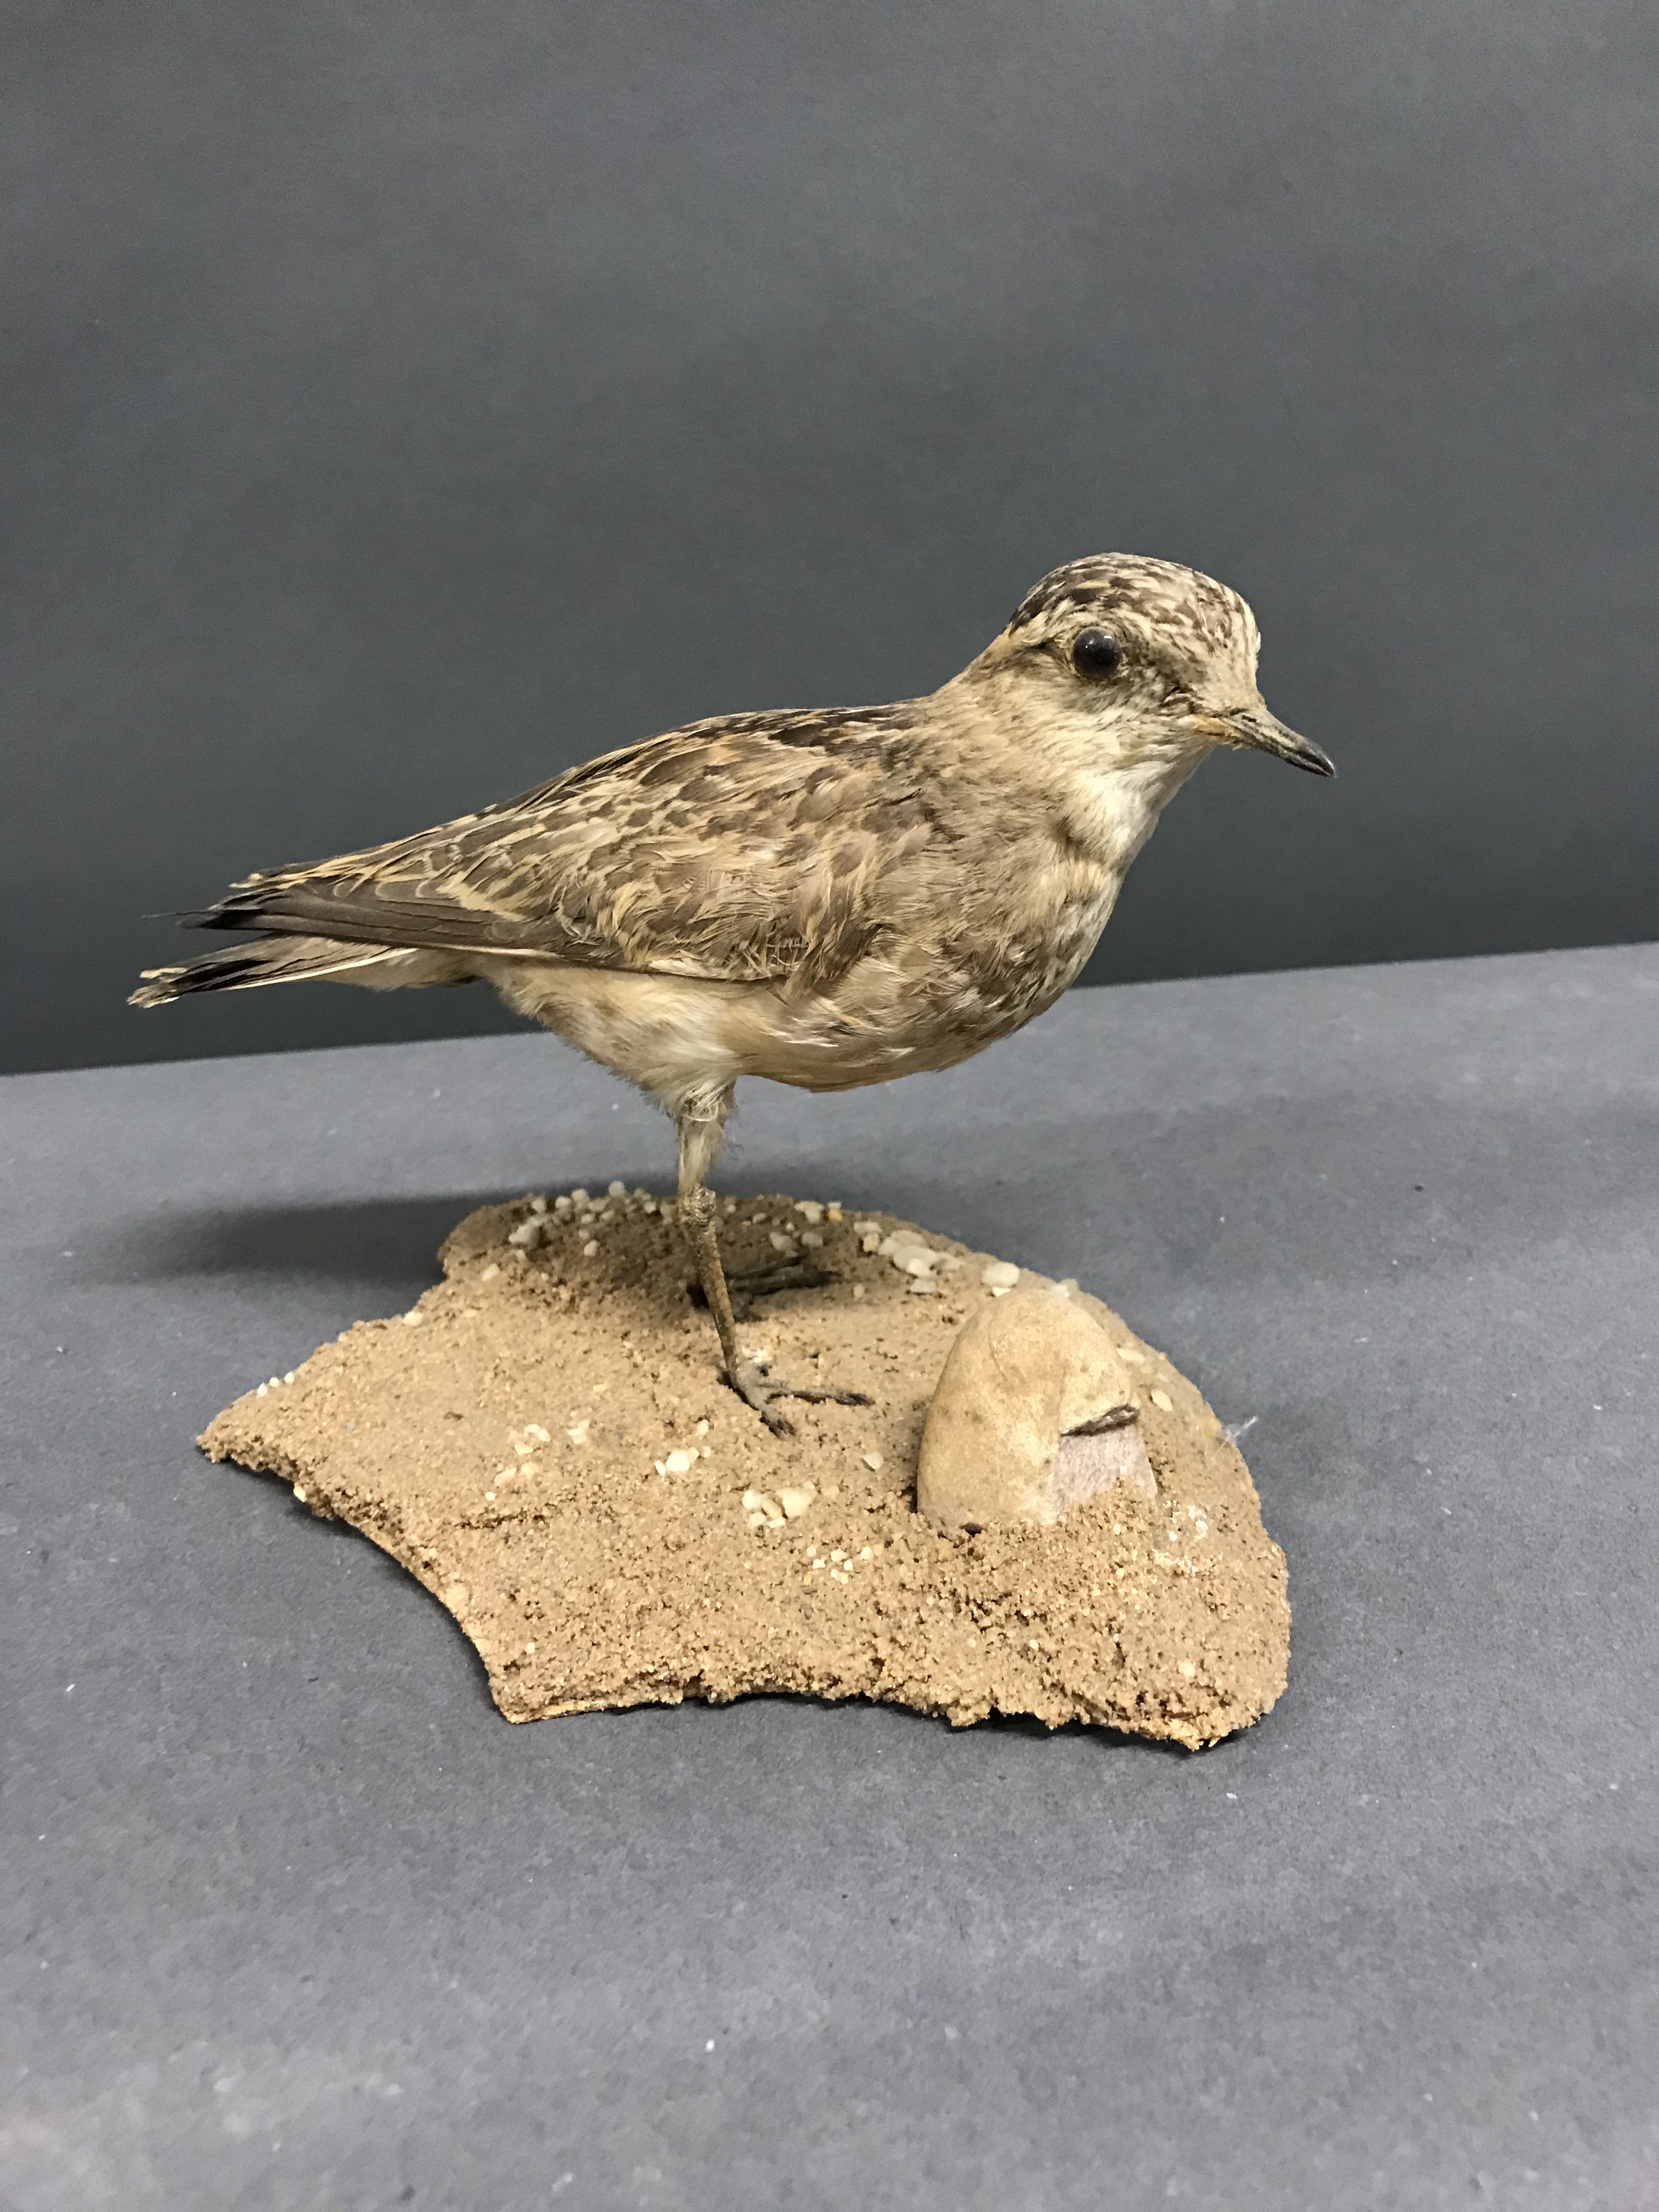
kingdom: Animalia
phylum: Chordata
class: Aves
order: Charadriiformes
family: Charadriidae
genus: Charadrius
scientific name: Charadrius morinellus
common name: Eurasian dotterel
